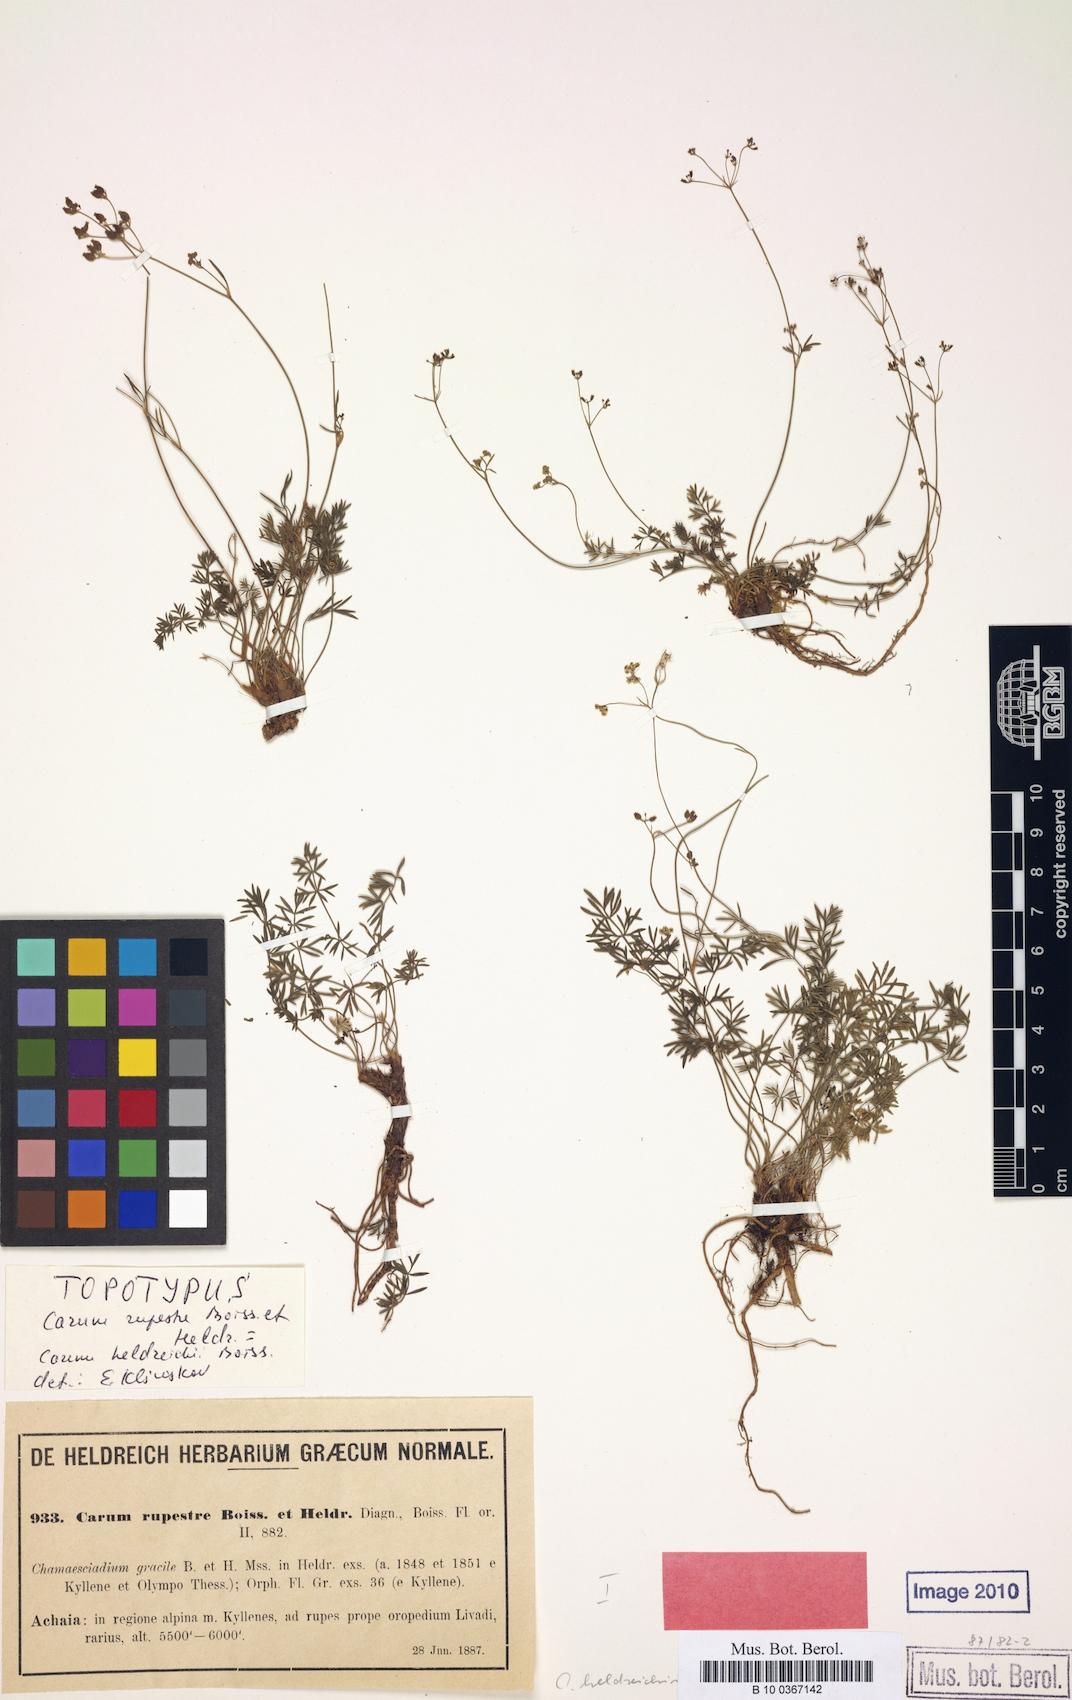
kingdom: Plantae
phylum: Tracheophyta
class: Magnoliopsida
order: Apiales
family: Apiaceae
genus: Carum
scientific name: Carum heldreichii
